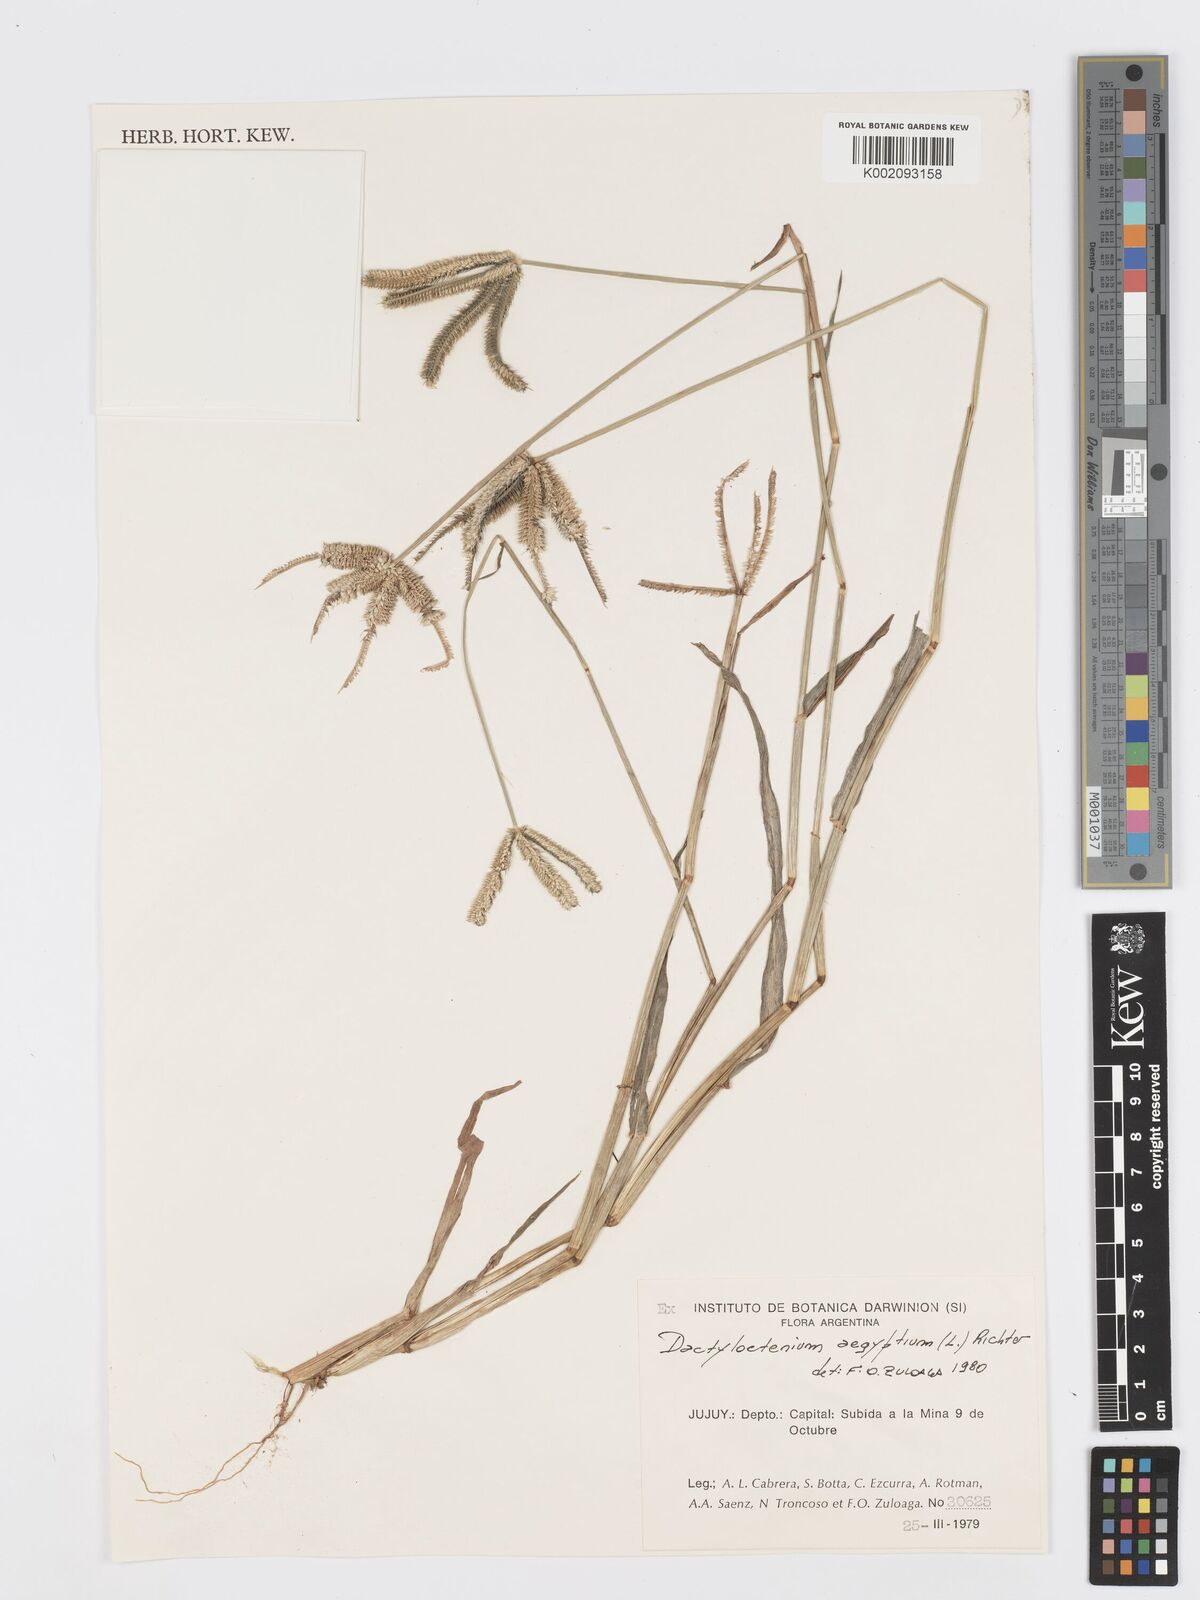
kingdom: Plantae
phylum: Tracheophyta
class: Liliopsida
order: Poales
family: Poaceae
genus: Dactyloctenium
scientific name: Dactyloctenium aegyptium
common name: Egyptian grass
